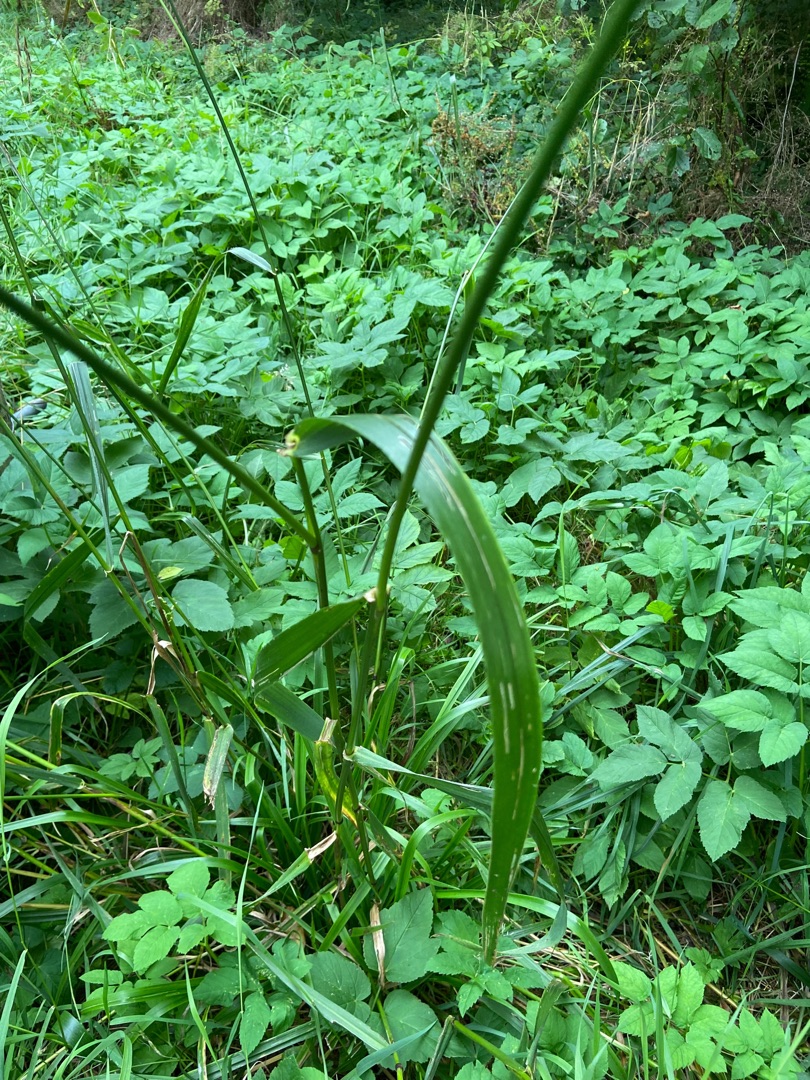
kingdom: Plantae
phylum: Tracheophyta
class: Liliopsida
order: Poales
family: Poaceae
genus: Lolium
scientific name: Lolium giganteum
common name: Kæmpe-svingel
